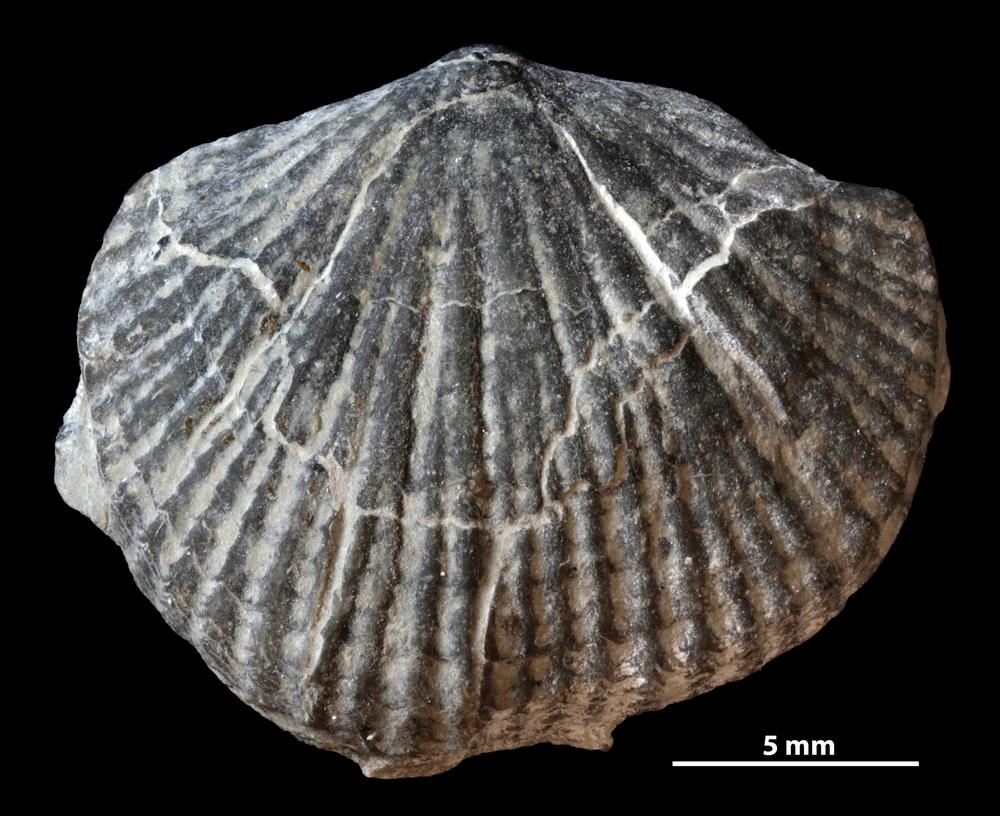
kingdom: Animalia
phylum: Brachiopoda
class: Rhynchonellata
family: Dolerorthidae
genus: Glyptorthis
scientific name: Glyptorthis irrupta
